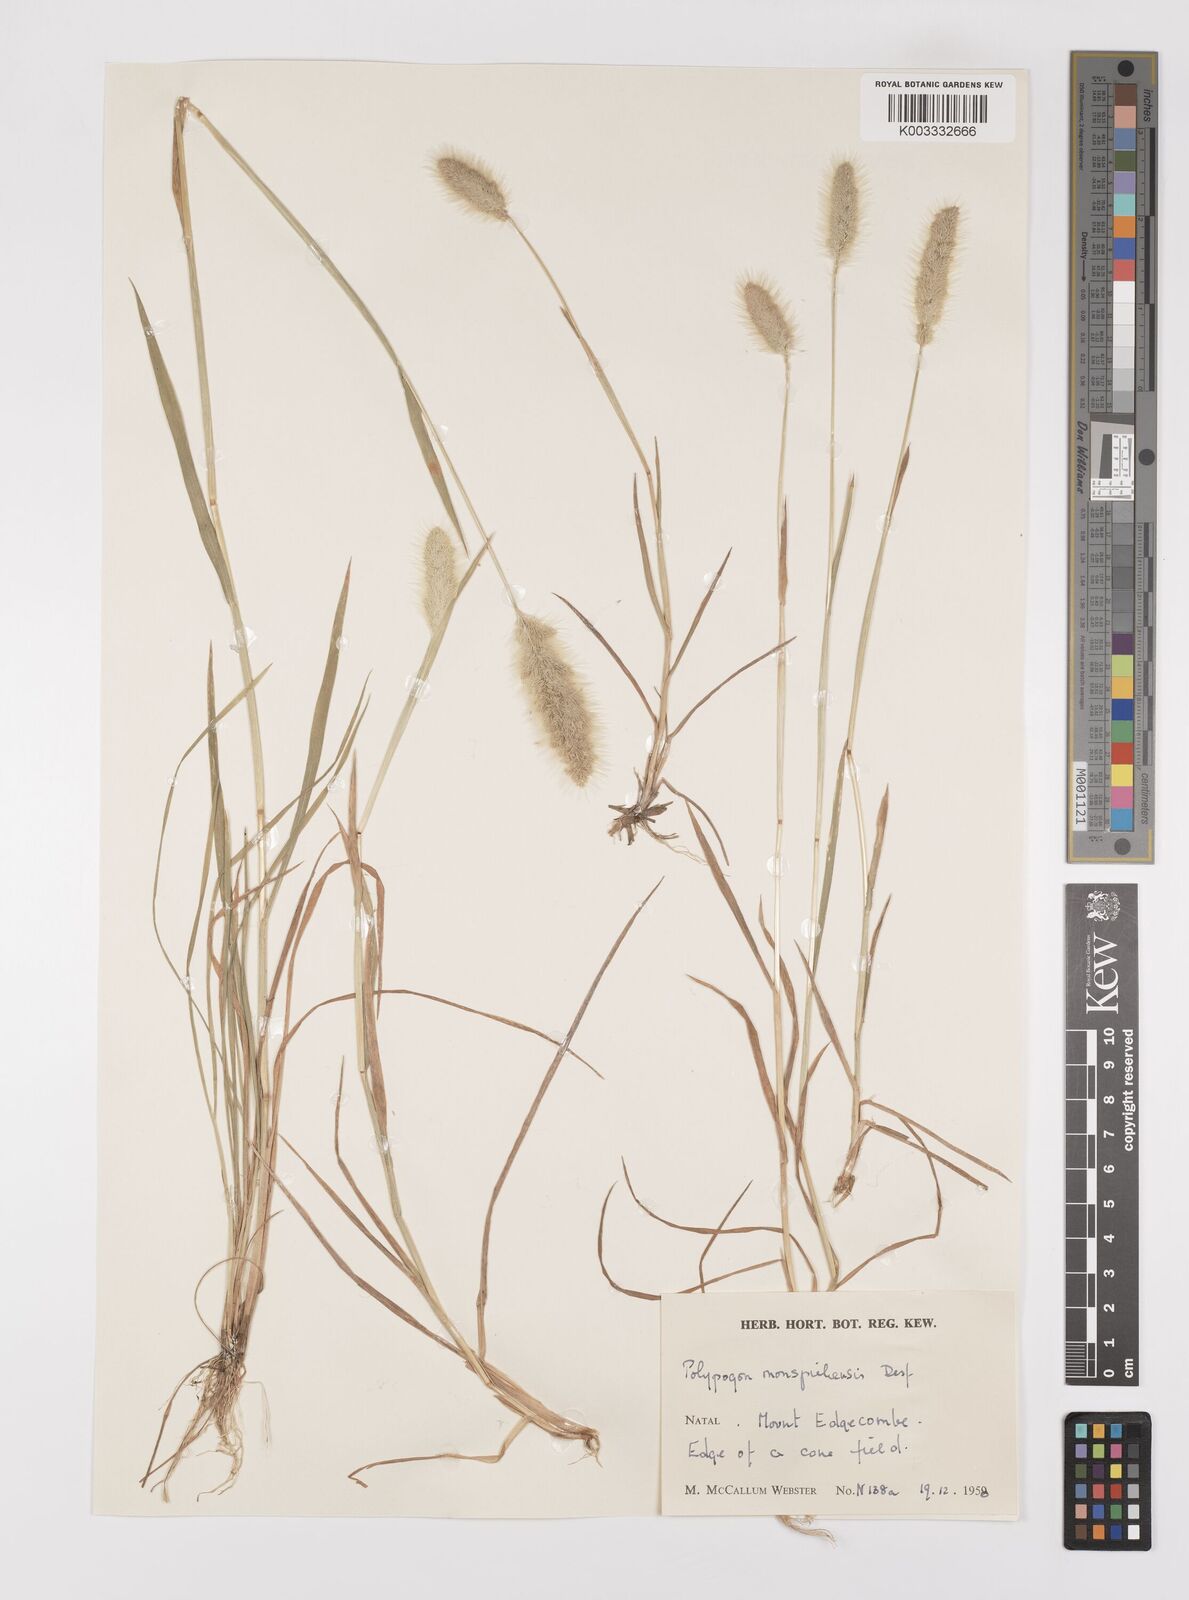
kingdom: Plantae
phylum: Tracheophyta
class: Liliopsida
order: Poales
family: Poaceae
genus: Polypogon
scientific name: Polypogon monspeliensis
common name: Annual rabbitsfoot grass
